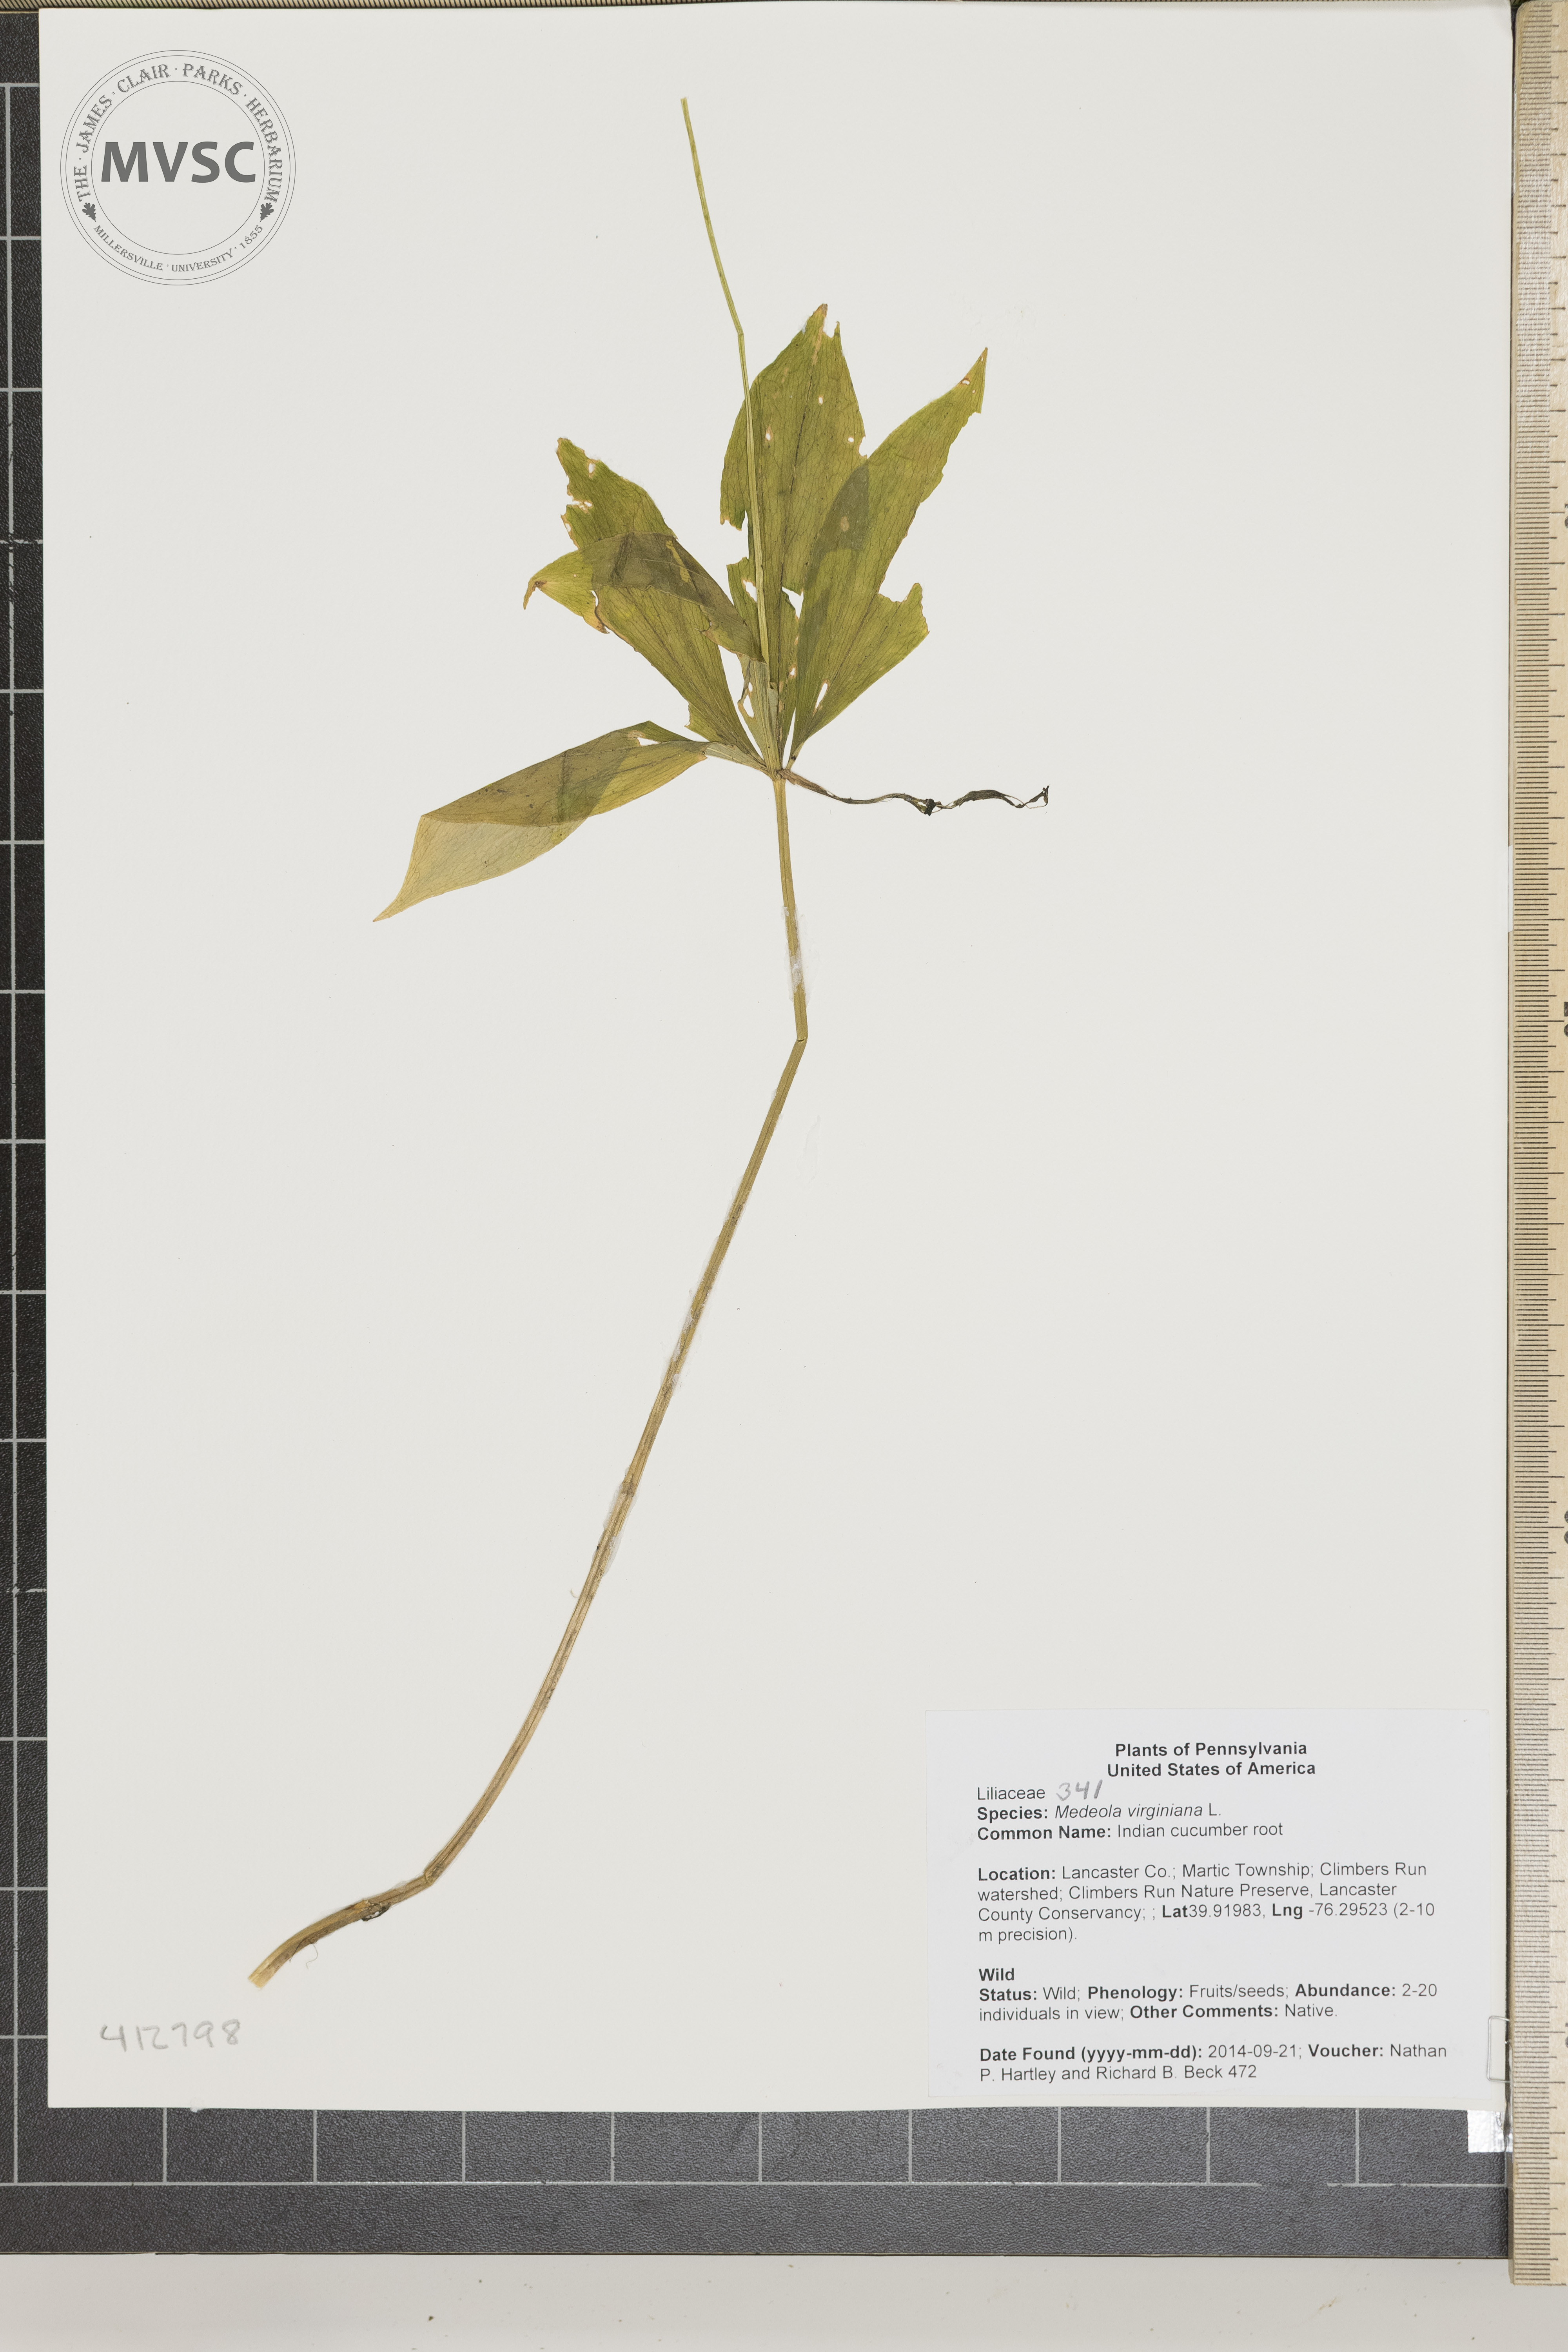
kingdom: Plantae
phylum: Tracheophyta
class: Liliopsida
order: Liliales
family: Liliaceae
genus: Medeola
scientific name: Medeola virginiana
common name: Indian cucumber root
